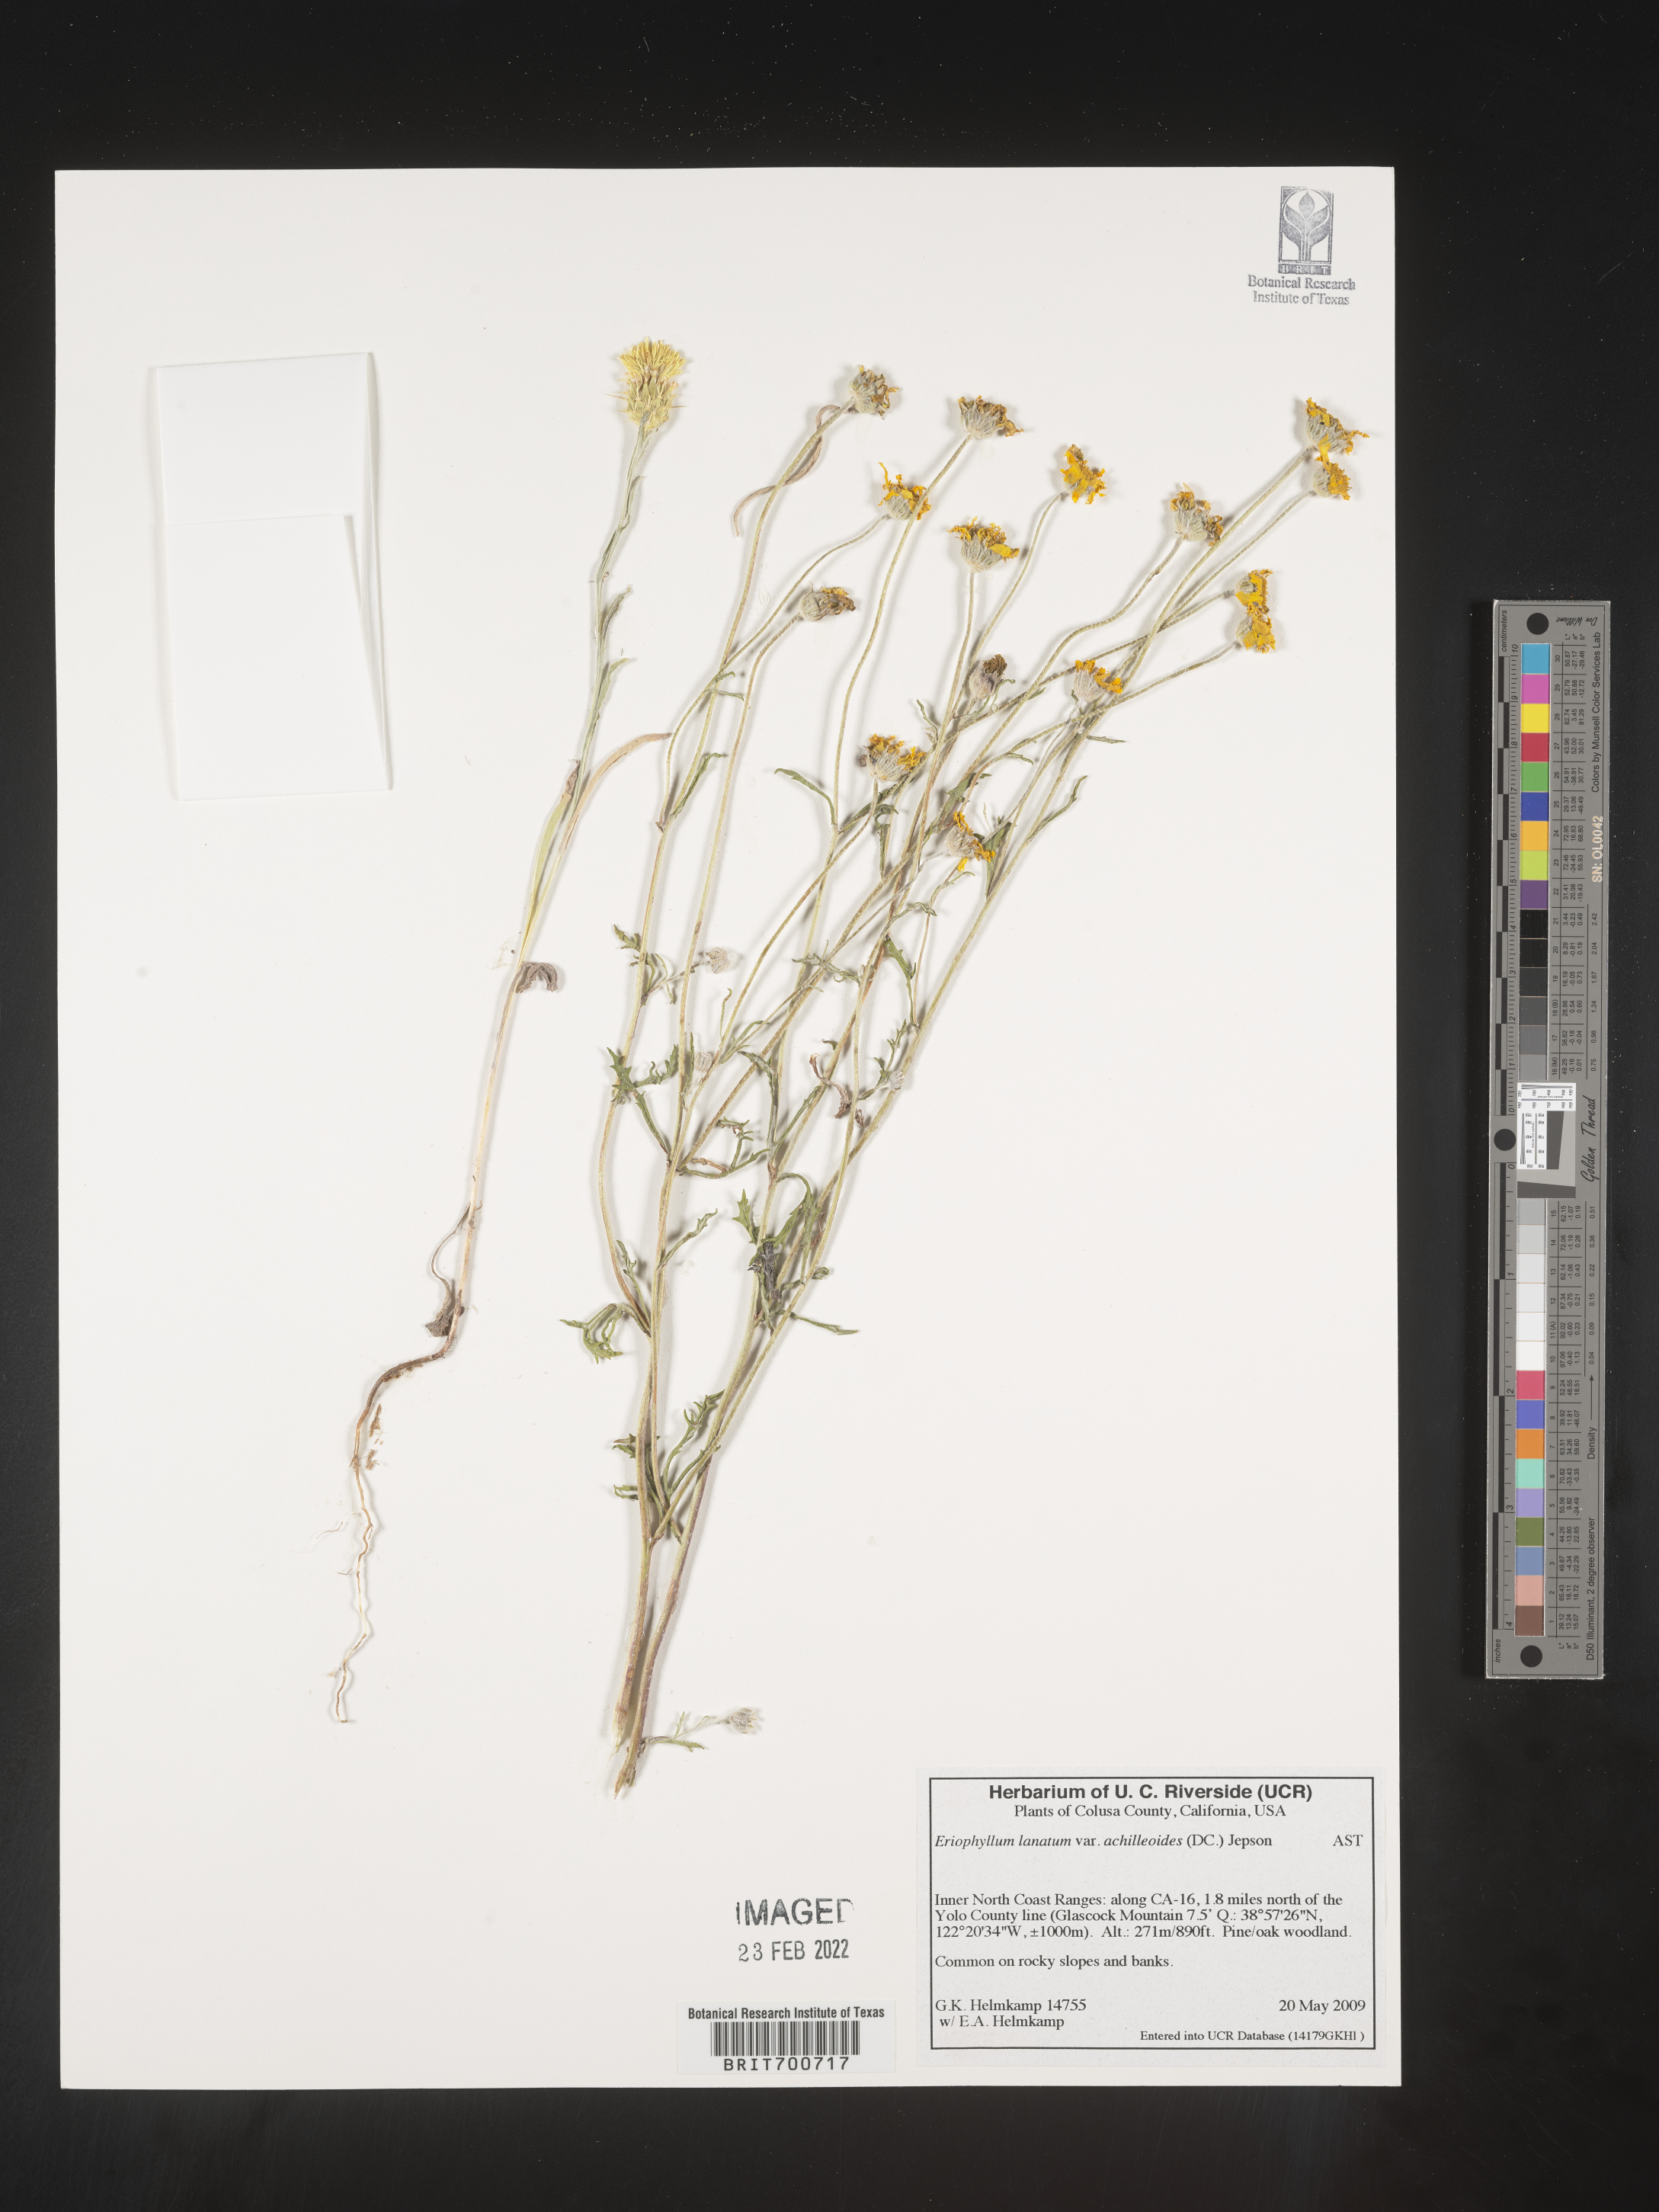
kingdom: Plantae
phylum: Tracheophyta
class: Magnoliopsida
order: Asterales
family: Asteraceae
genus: Eriophyllum
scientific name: Eriophyllum lanatum
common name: Common woolly-sunflower
